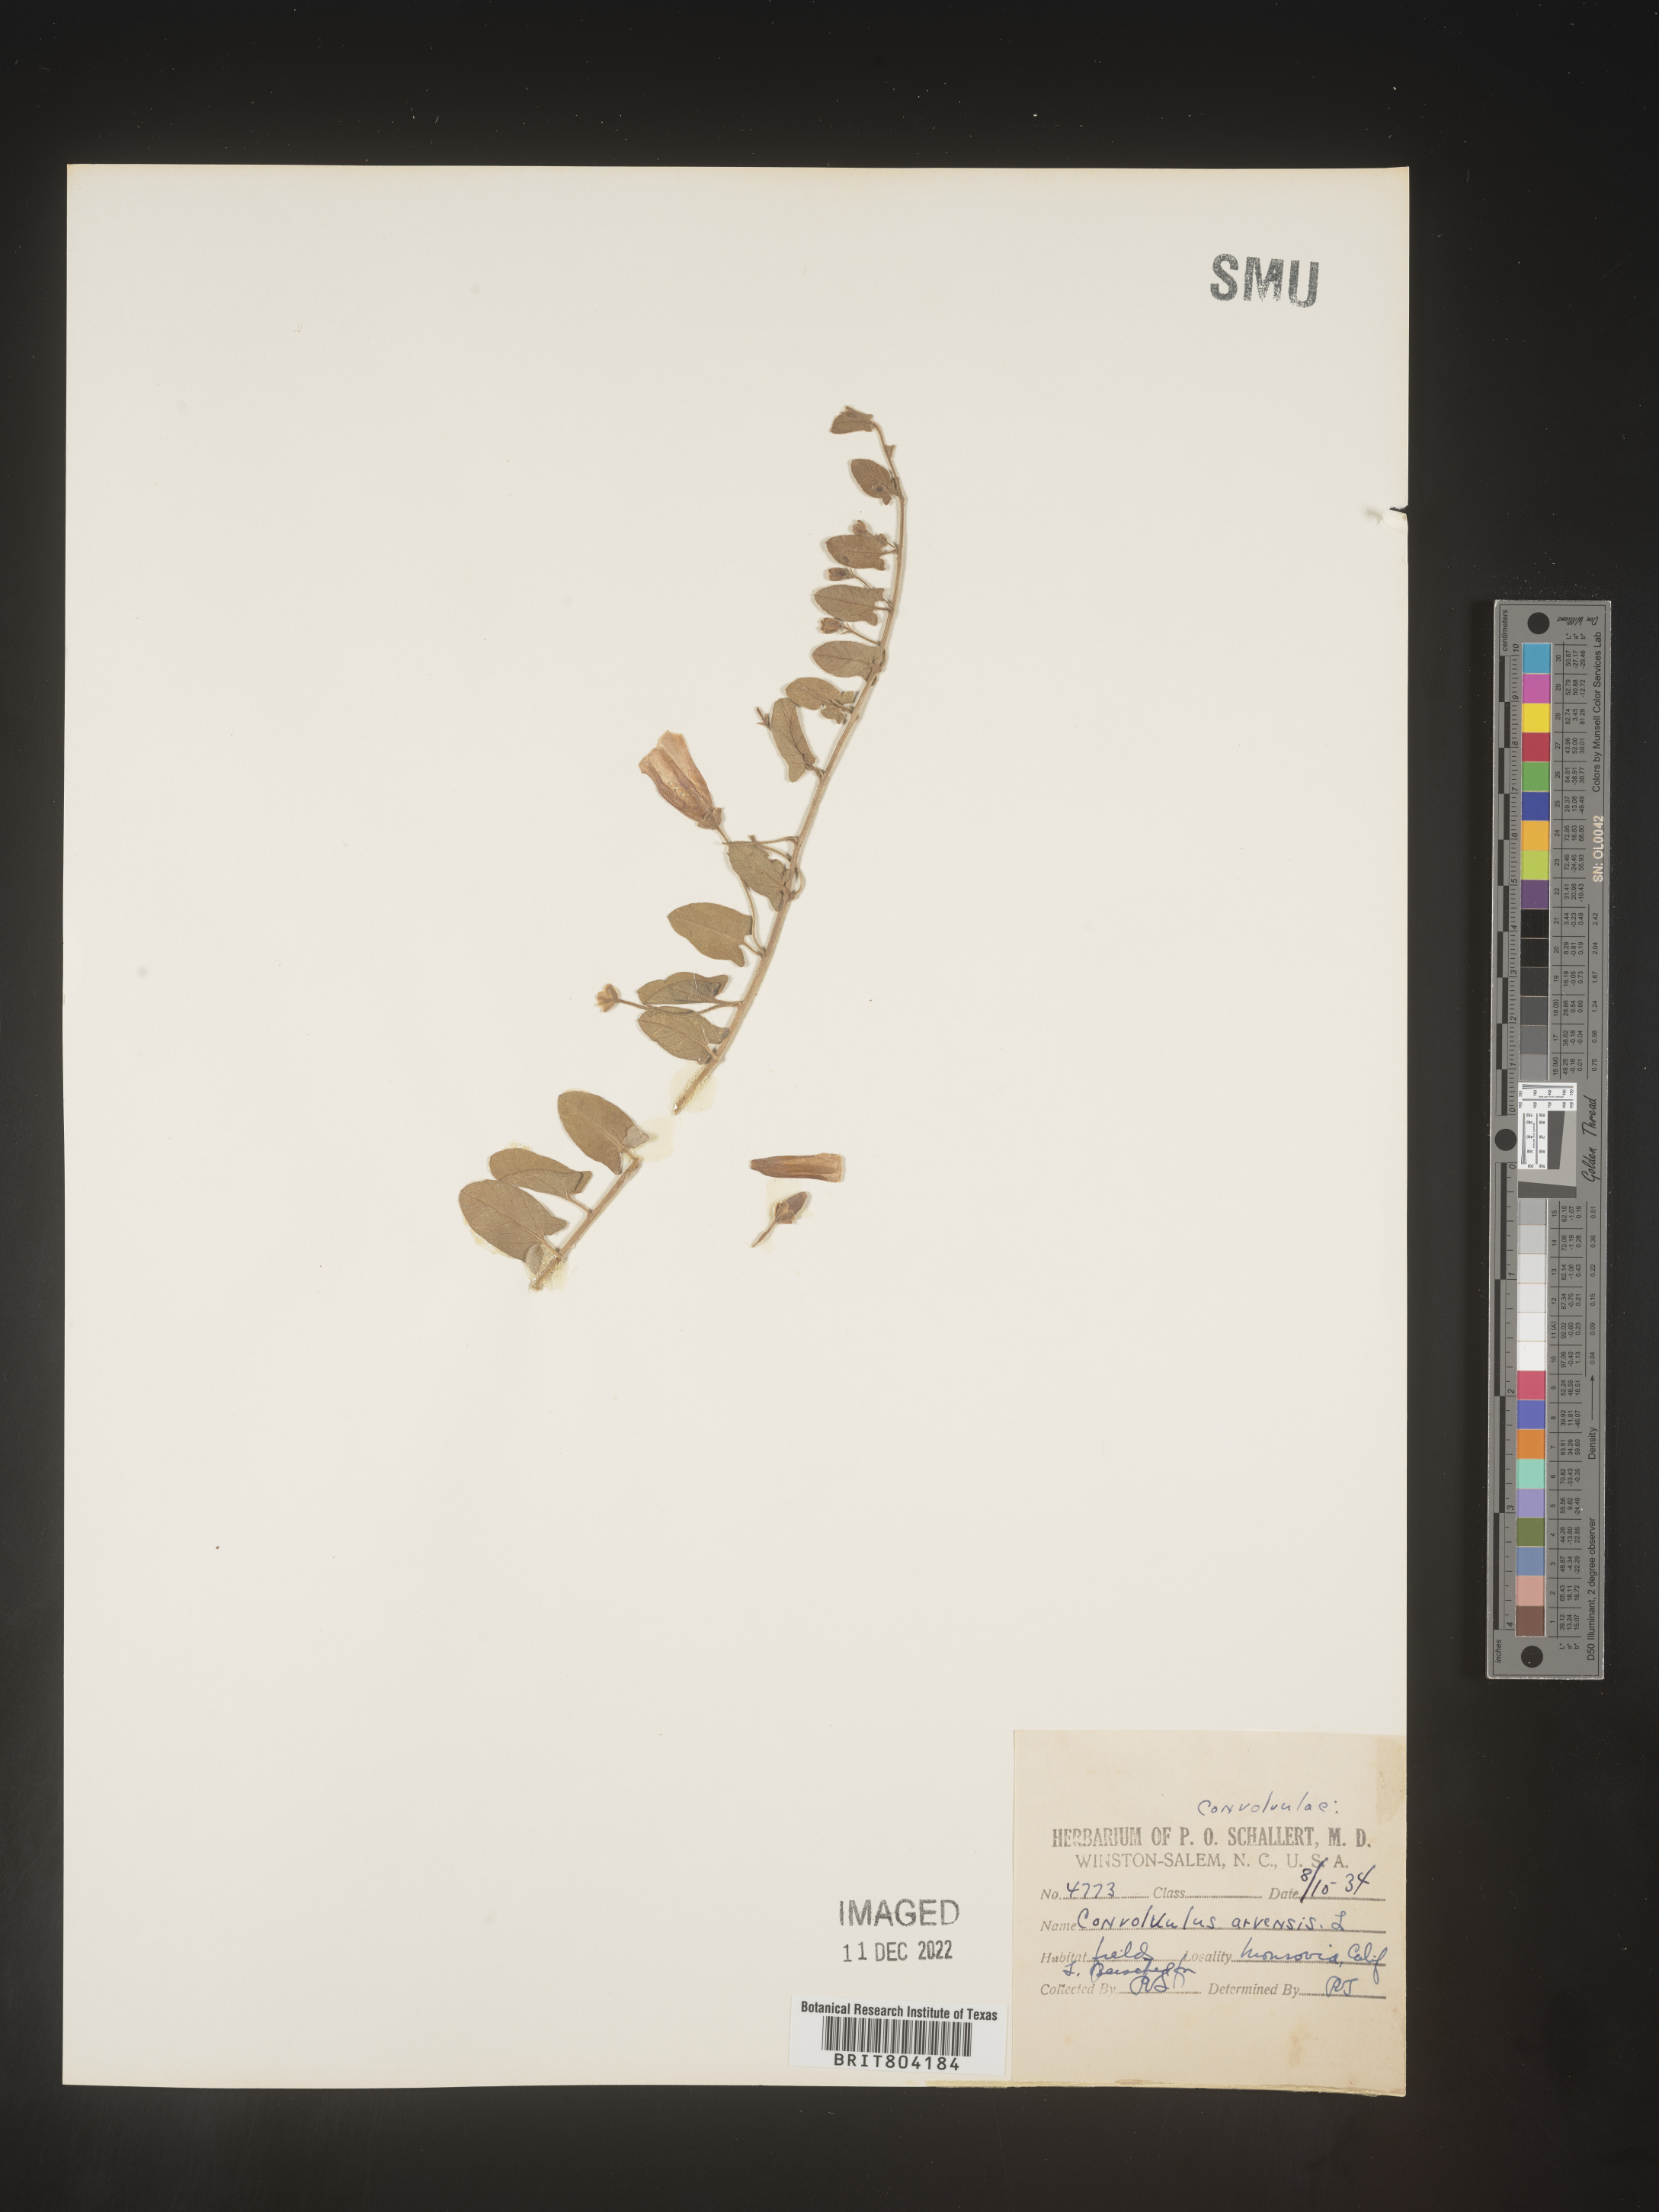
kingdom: Plantae
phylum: Tracheophyta
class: Magnoliopsida
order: Solanales
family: Convolvulaceae
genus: Convolvulus
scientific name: Convolvulus arvensis
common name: Field bindweed
